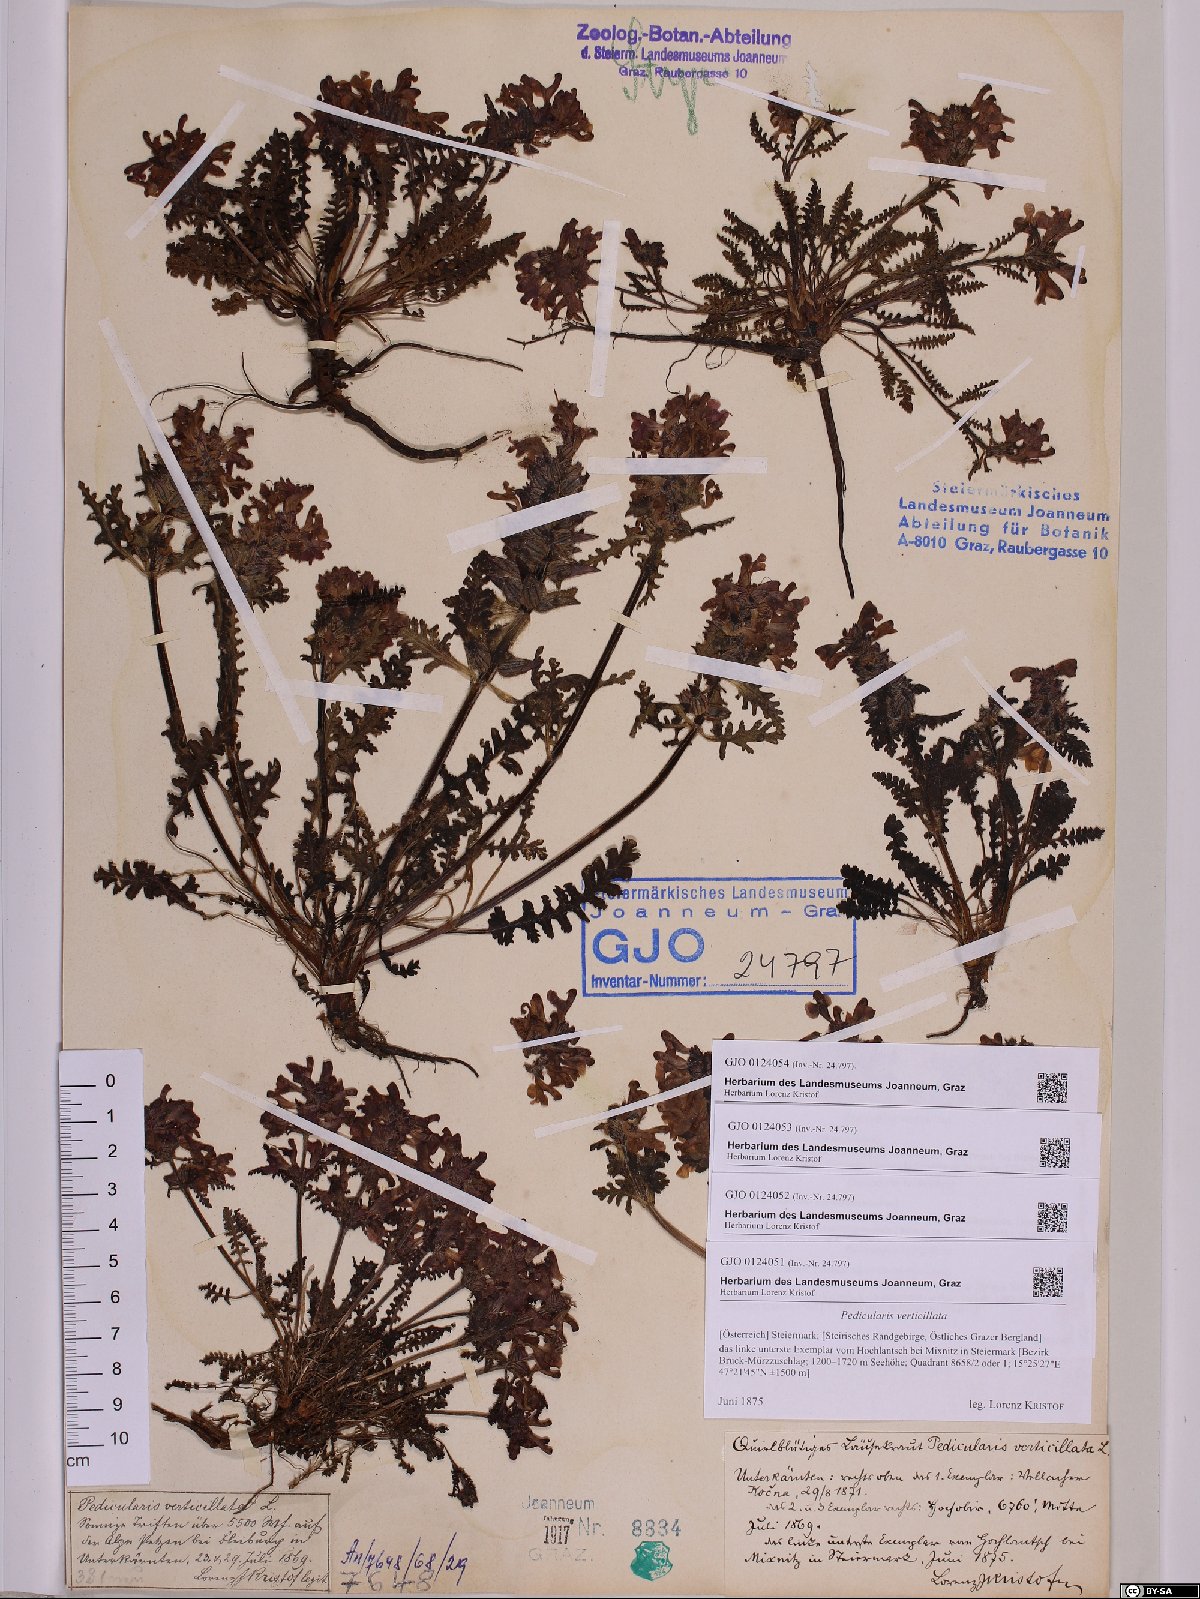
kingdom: Plantae
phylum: Tracheophyta
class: Magnoliopsida
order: Lamiales
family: Orobanchaceae
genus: Pedicularis
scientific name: Pedicularis verticillata
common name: Whorled lousewort
